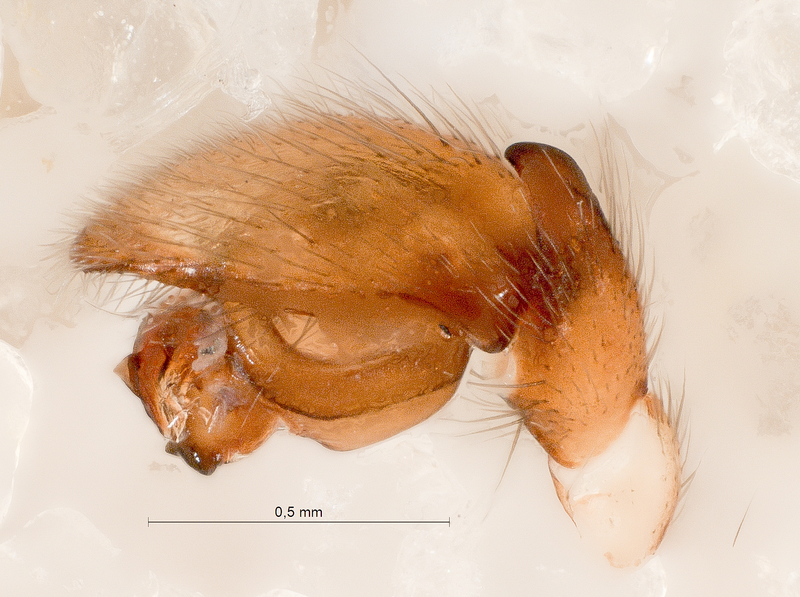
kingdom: Animalia
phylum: Arthropoda
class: Arachnida
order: Araneae
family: Gnaphosidae
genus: Haplodrassus
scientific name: Haplodrassus dalmatensis
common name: Heath grasper
